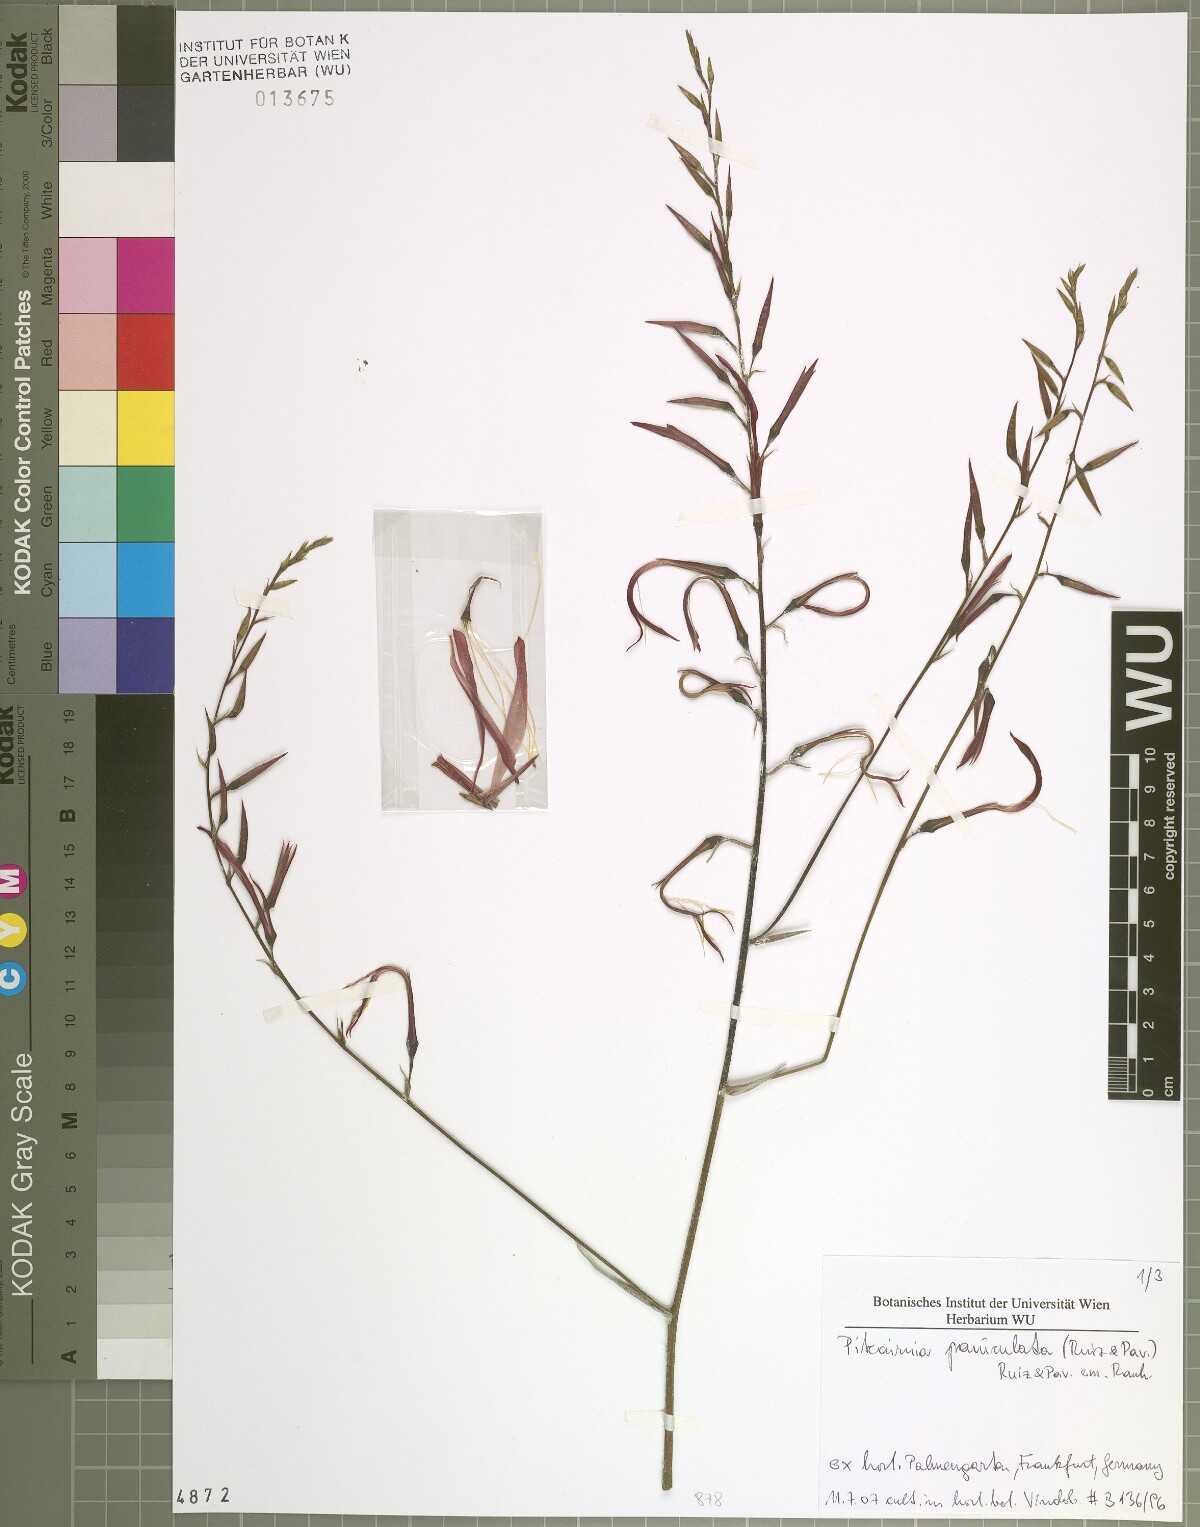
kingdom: Plantae
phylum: Tracheophyta
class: Liliopsida
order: Poales
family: Bromeliaceae
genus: Pitcairnia
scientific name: Pitcairnia paniculata
